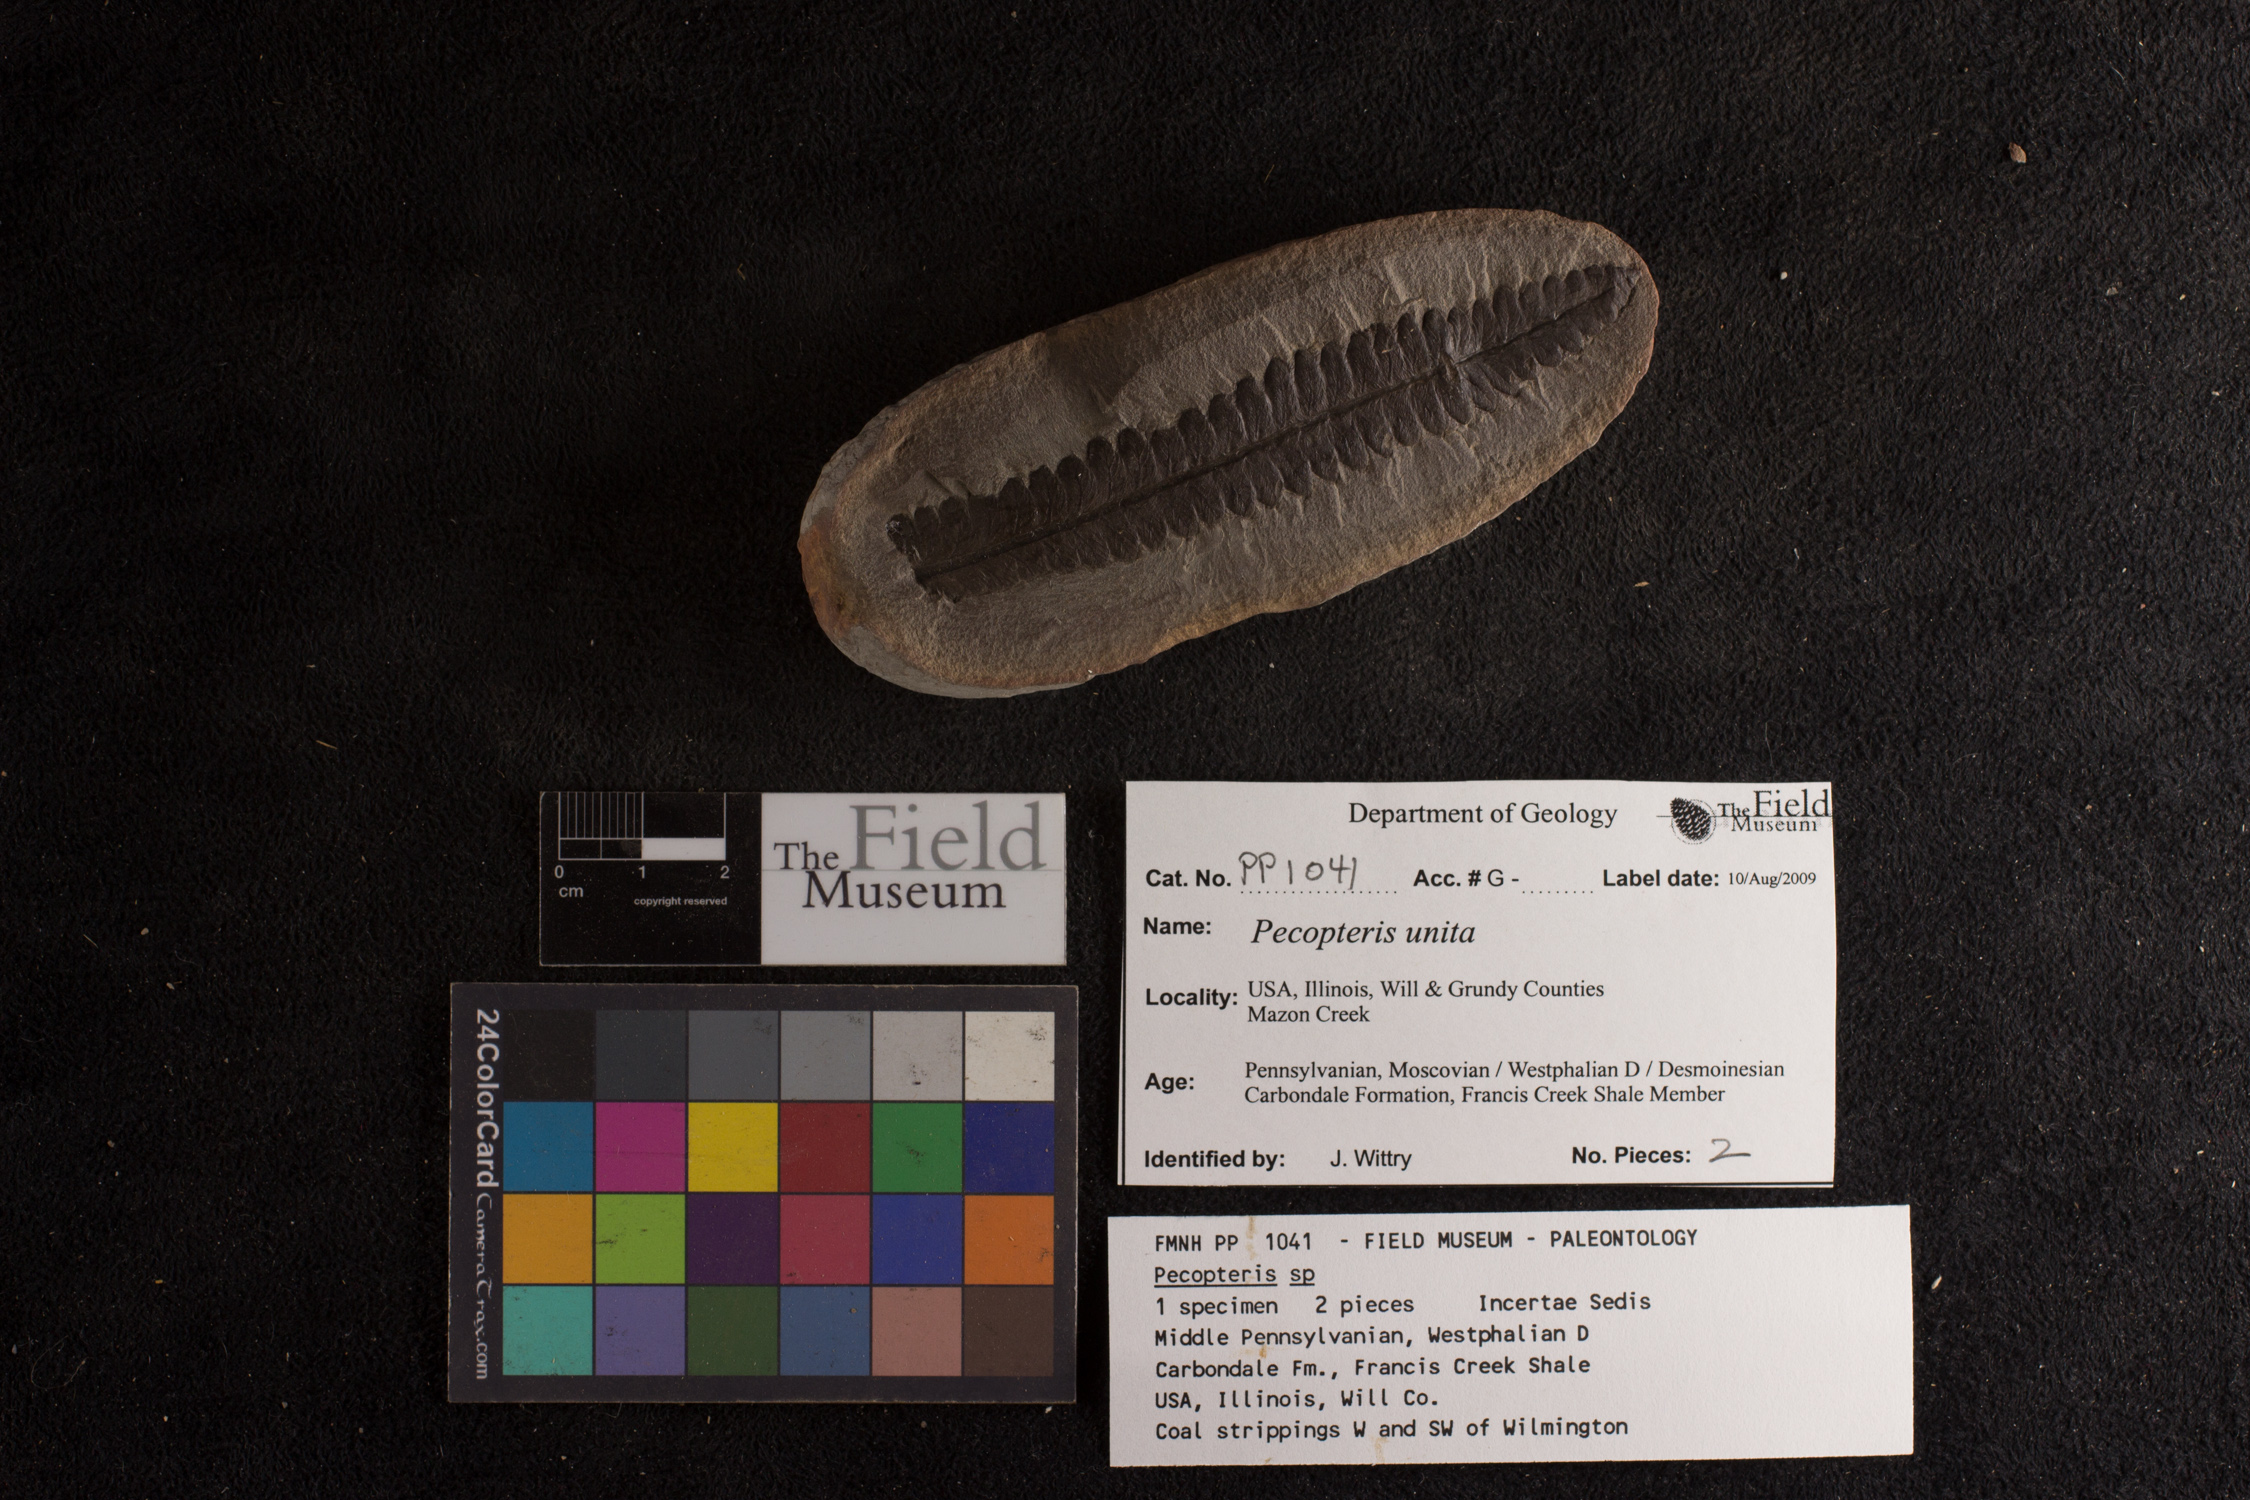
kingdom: Plantae
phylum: Tracheophyta
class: Polypodiopsida
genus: Diplazites
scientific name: Diplazites
